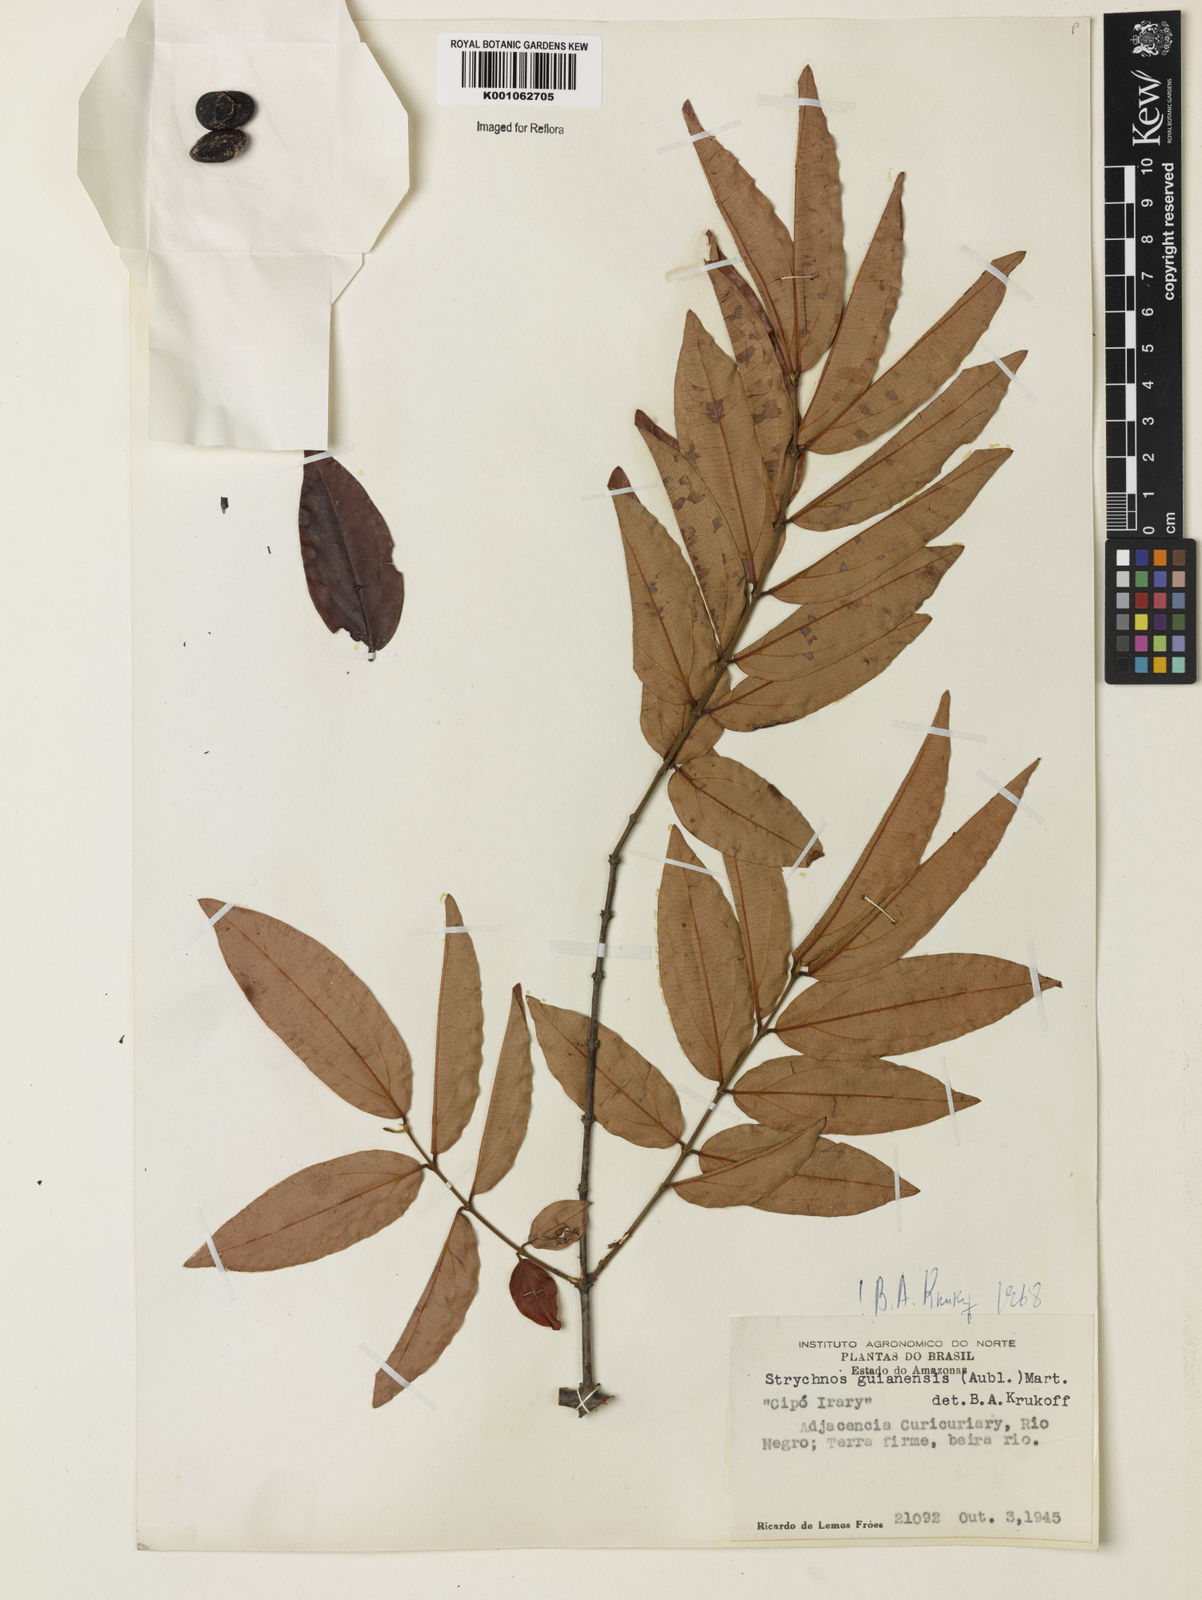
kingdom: Plantae
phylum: Tracheophyta
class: Magnoliopsida
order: Gentianales
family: Loganiaceae
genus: Strychnos
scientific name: Strychnos guianensis
